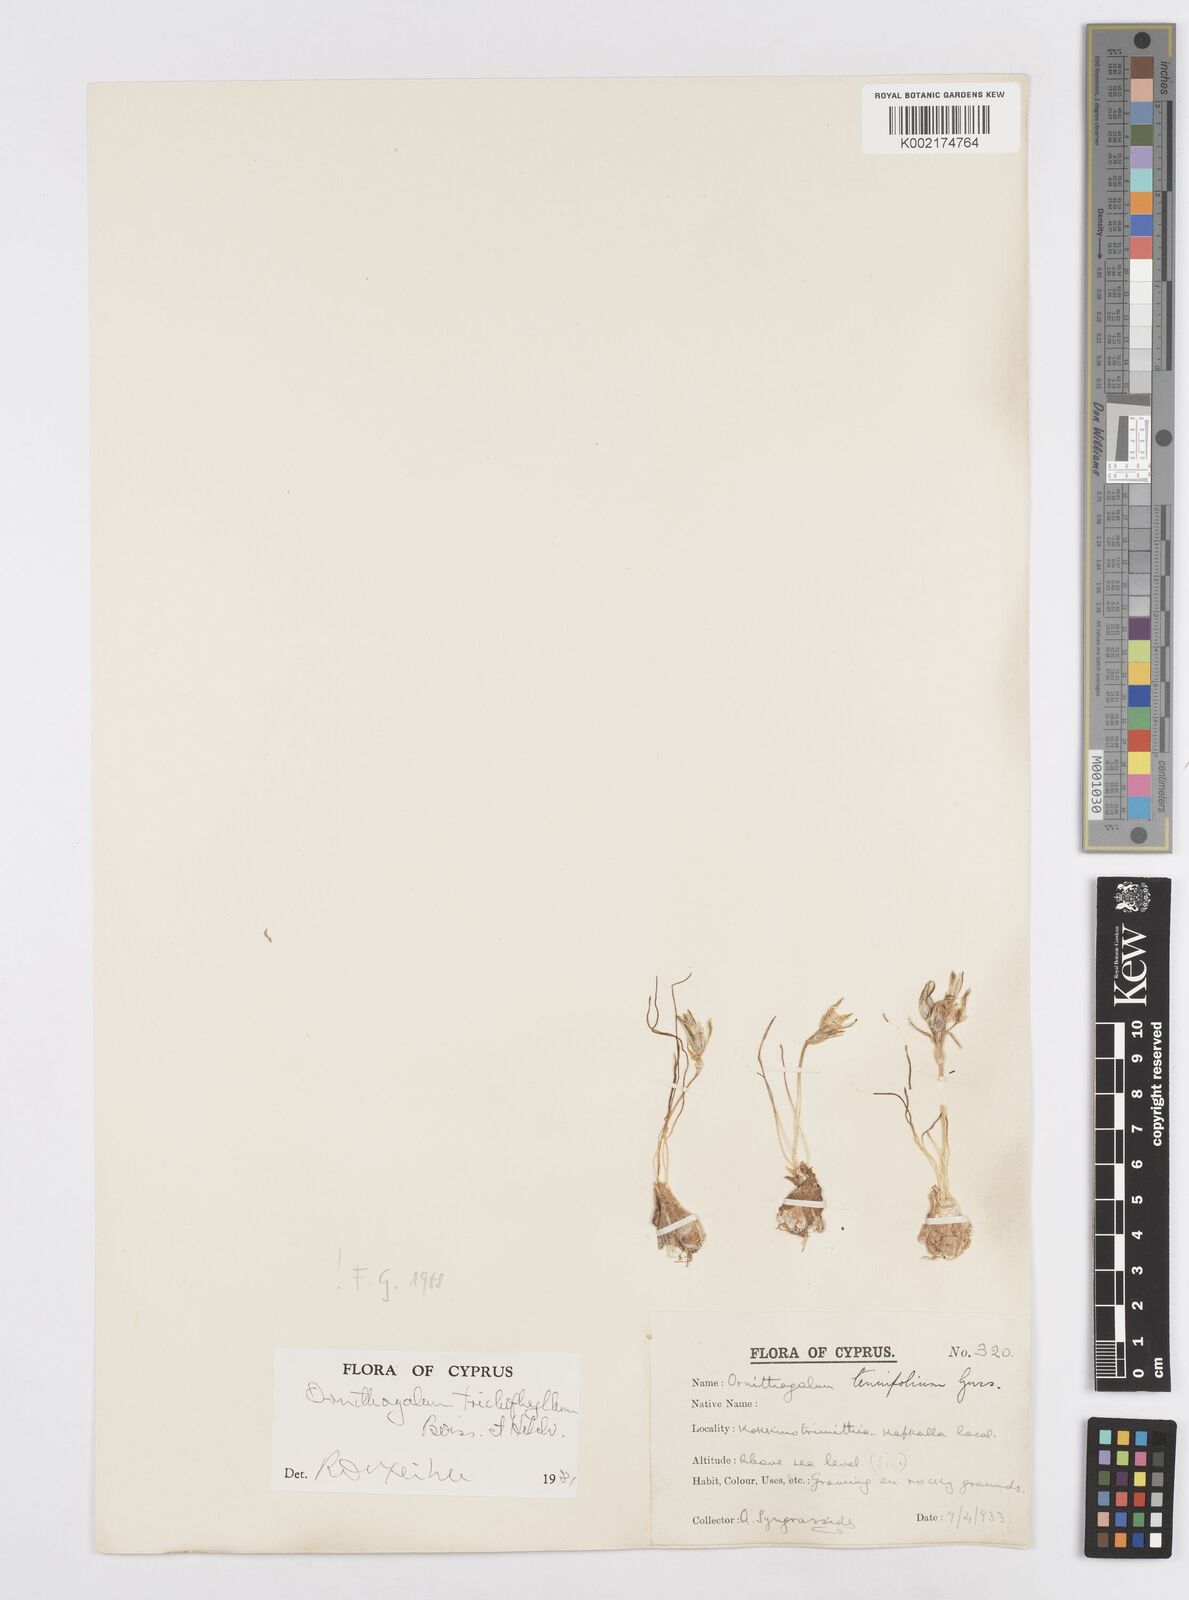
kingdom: Plantae
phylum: Tracheophyta
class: Liliopsida
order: Asparagales
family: Asparagaceae
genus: Ornithogalum
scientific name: Ornithogalum trichophyllum
